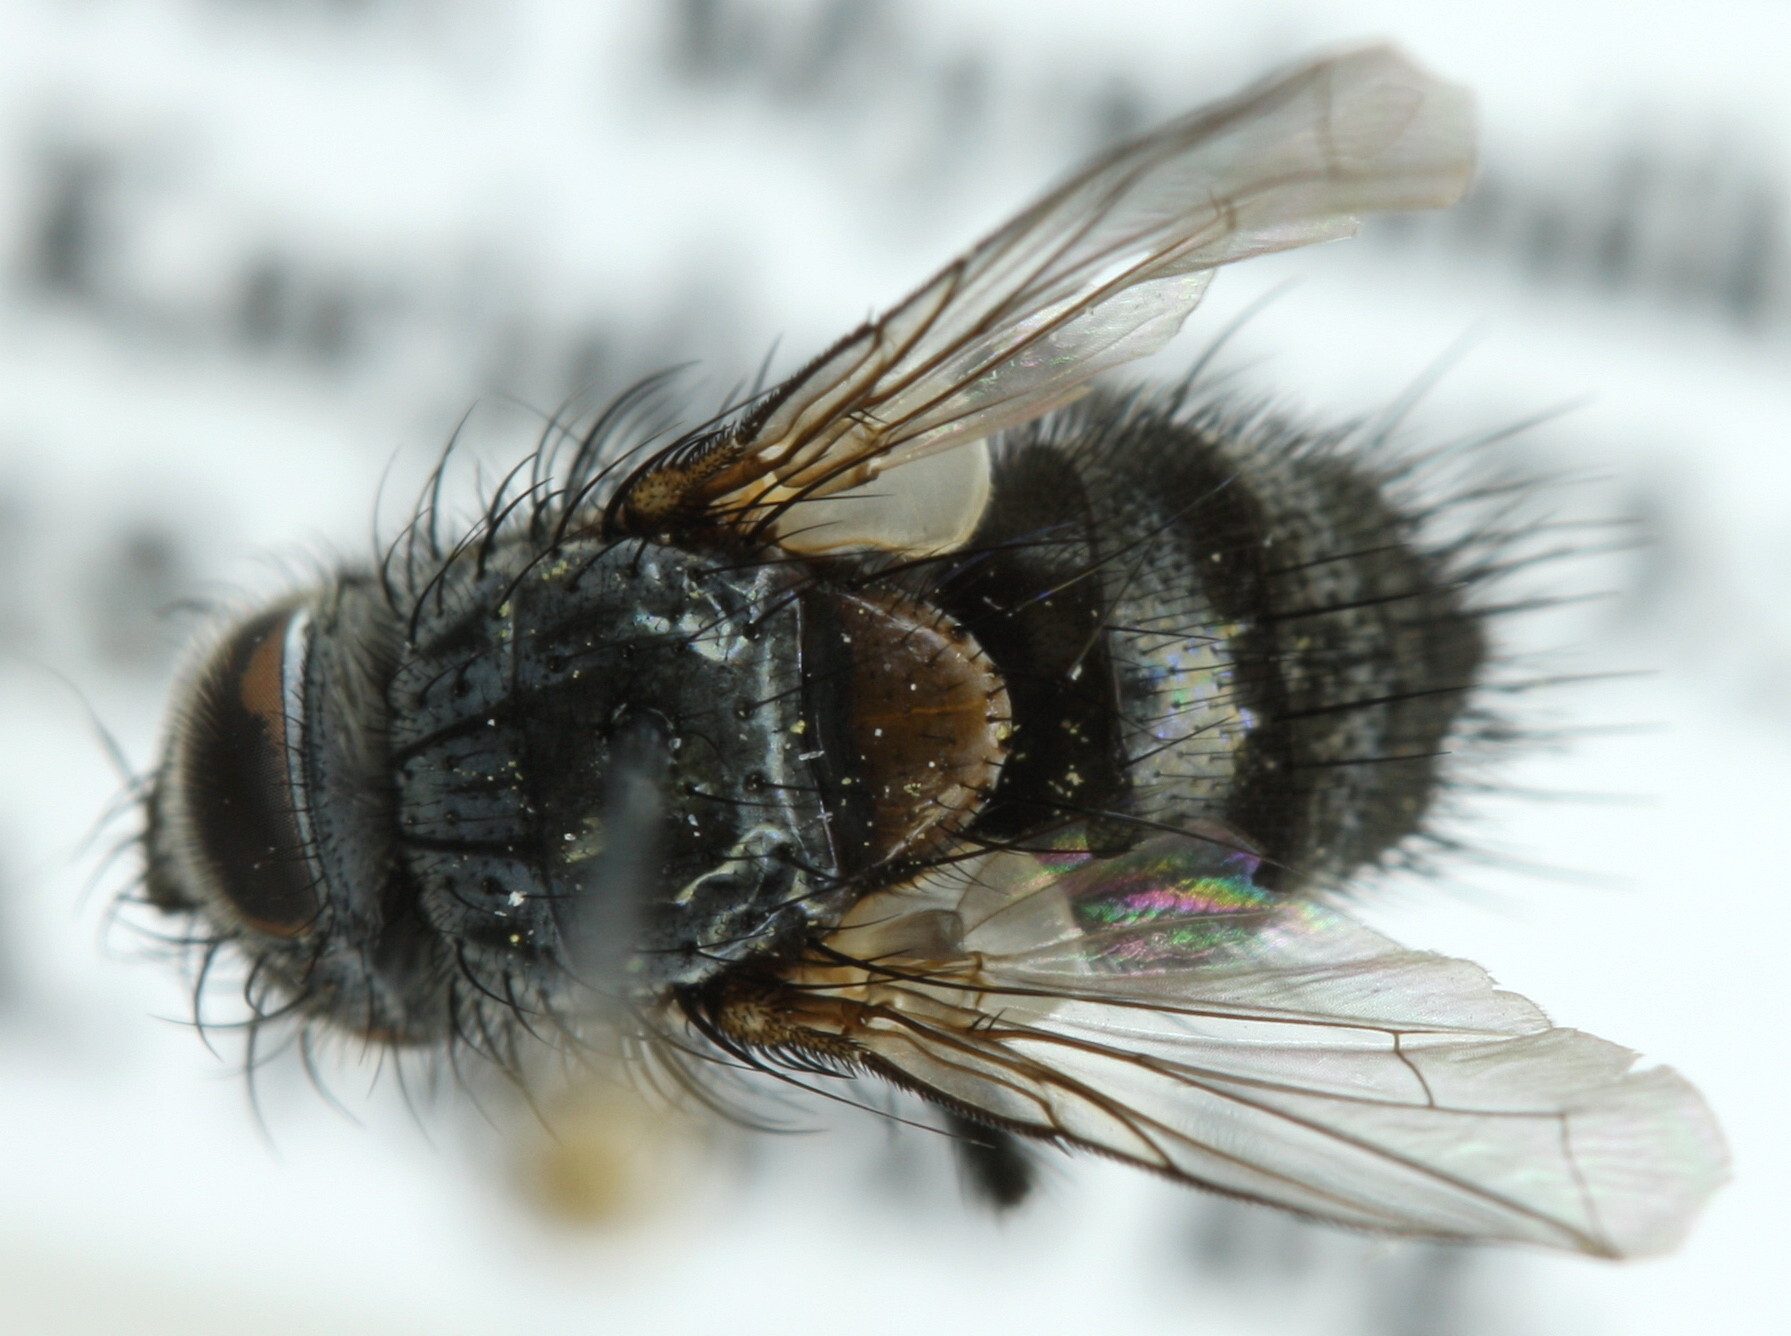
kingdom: Animalia
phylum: Arthropoda
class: Insecta
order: Diptera
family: Tachinidae
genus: Aplomya
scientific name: Aplomya confinis
